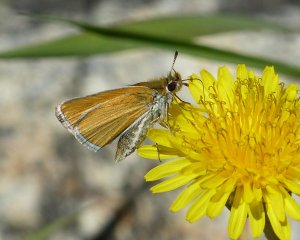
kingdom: Animalia
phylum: Arthropoda
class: Insecta
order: Lepidoptera
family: Hesperiidae
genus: Oarisma
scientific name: Oarisma garita
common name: Garita Skipperling
